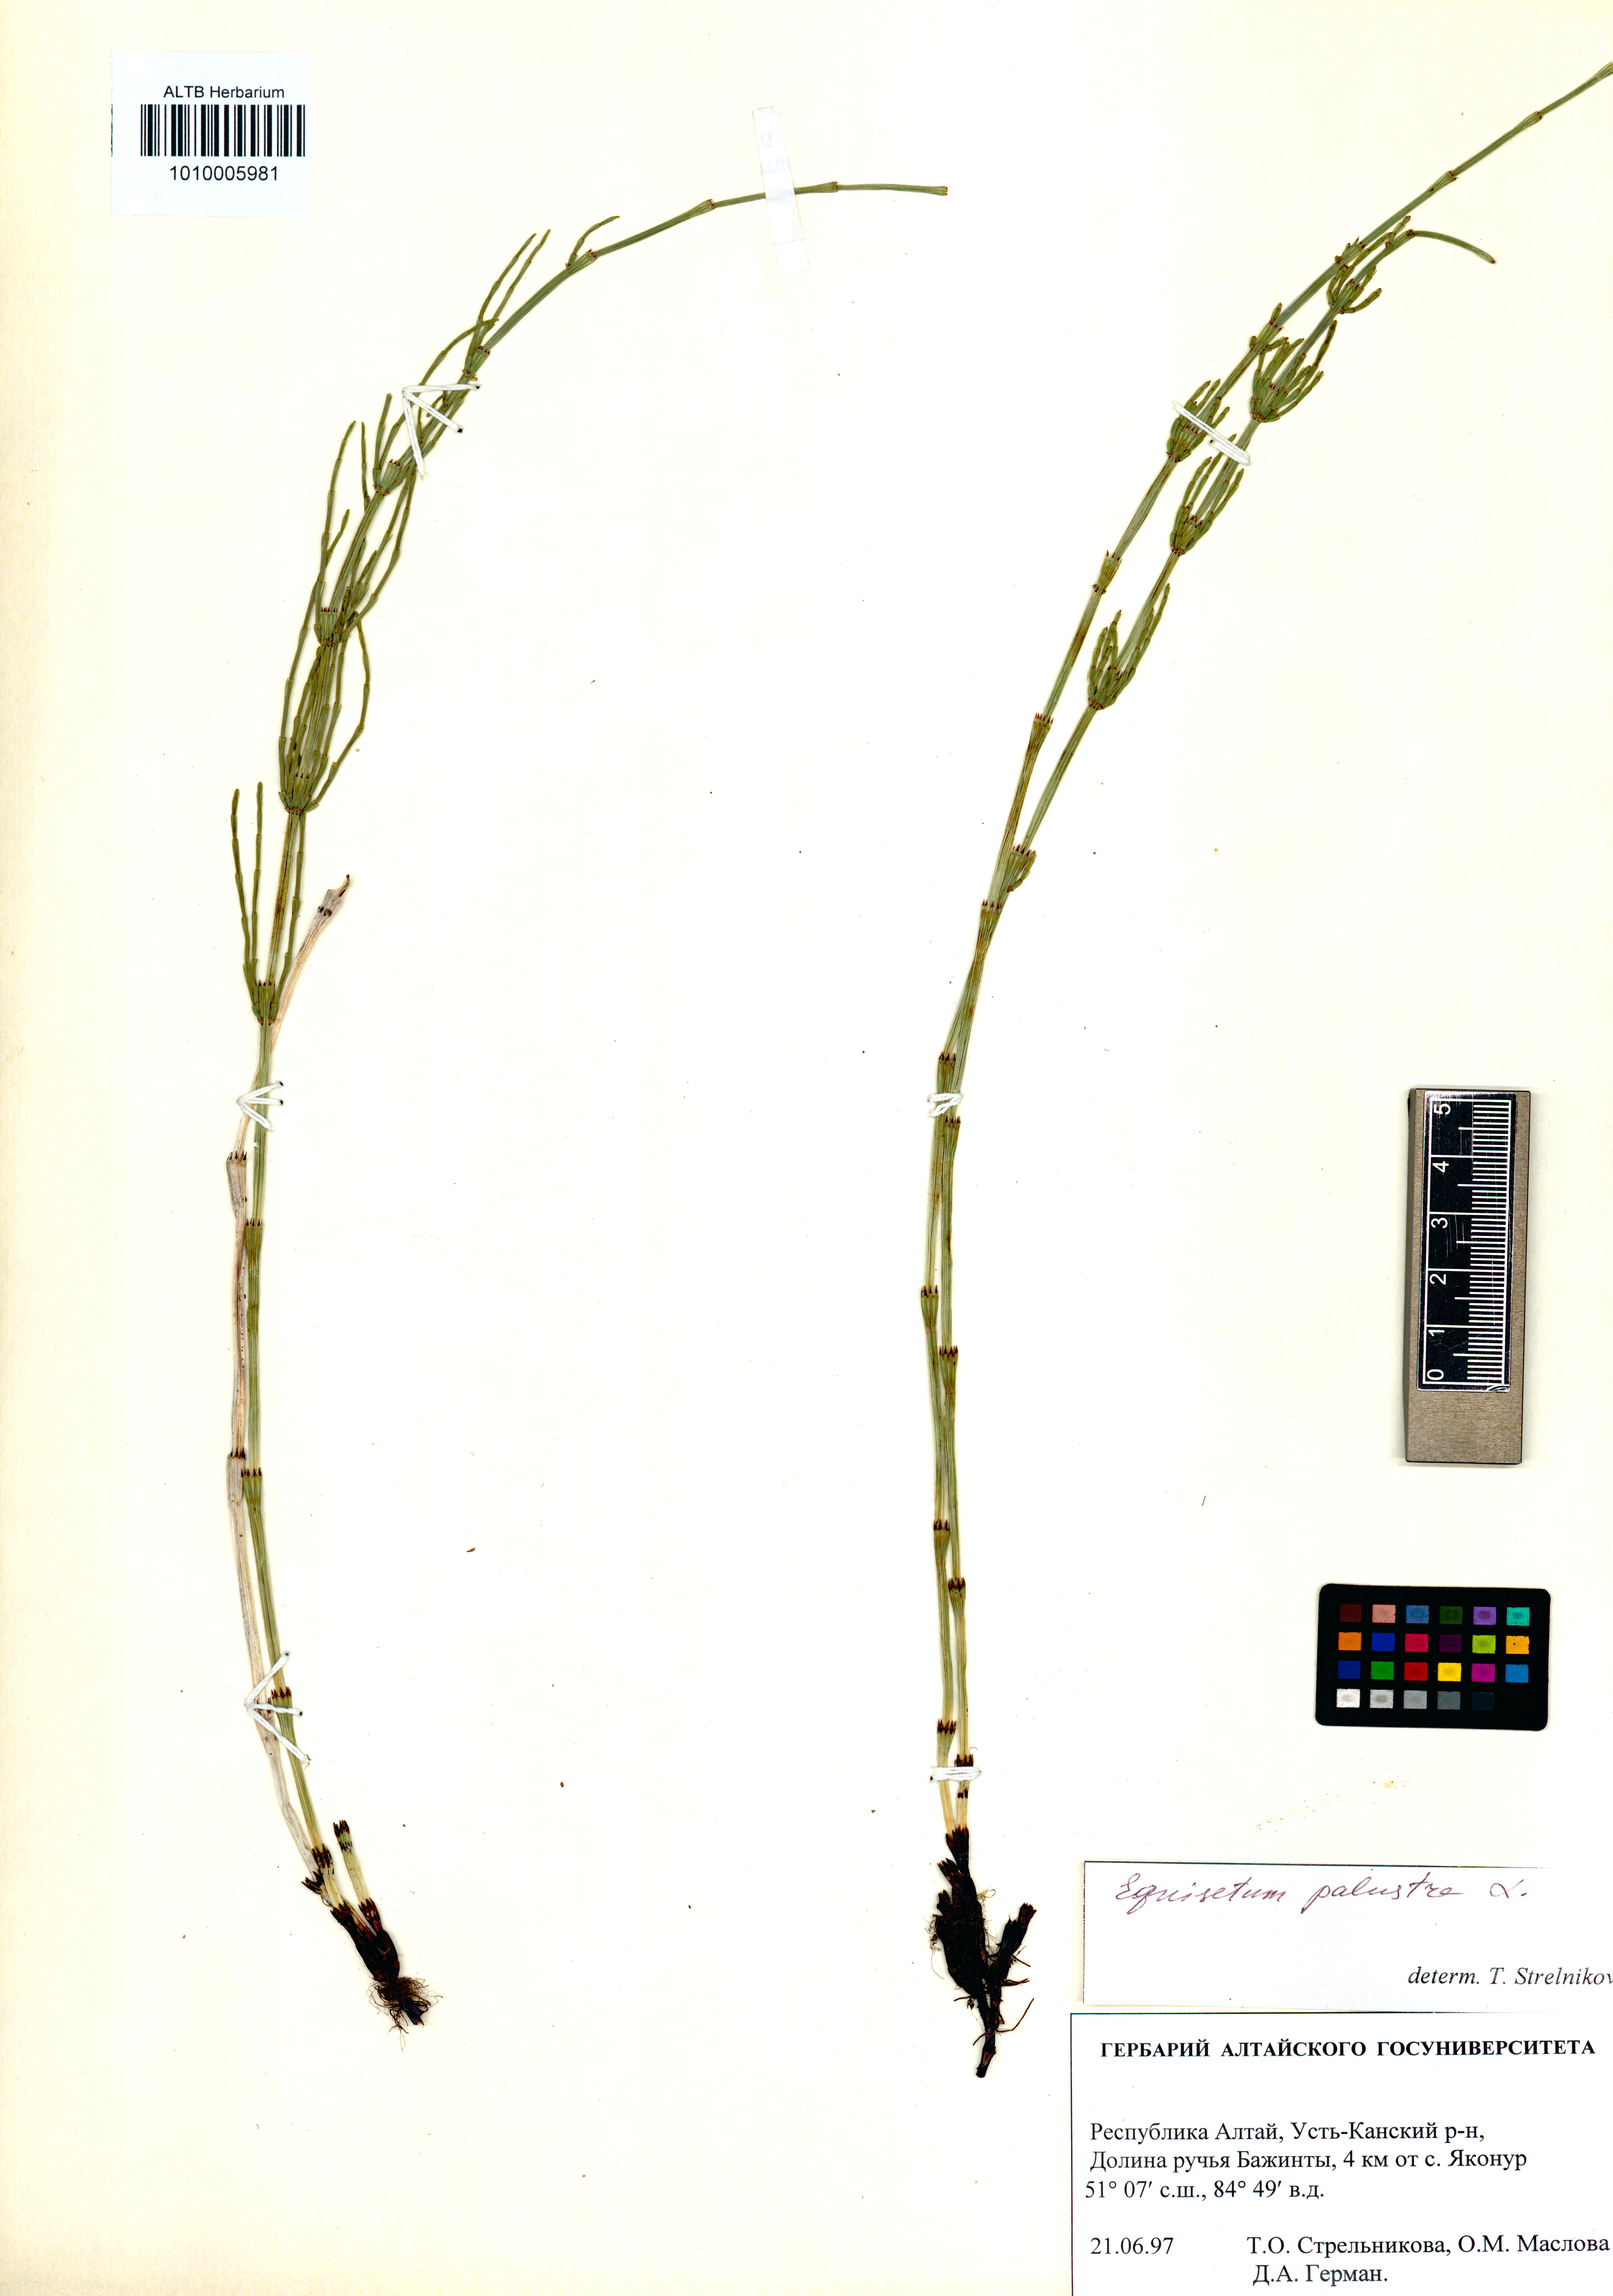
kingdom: Plantae
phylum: Tracheophyta
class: Polypodiopsida
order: Equisetales
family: Equisetaceae
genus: Equisetum
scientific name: Equisetum palustre
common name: Marsh horsetail
